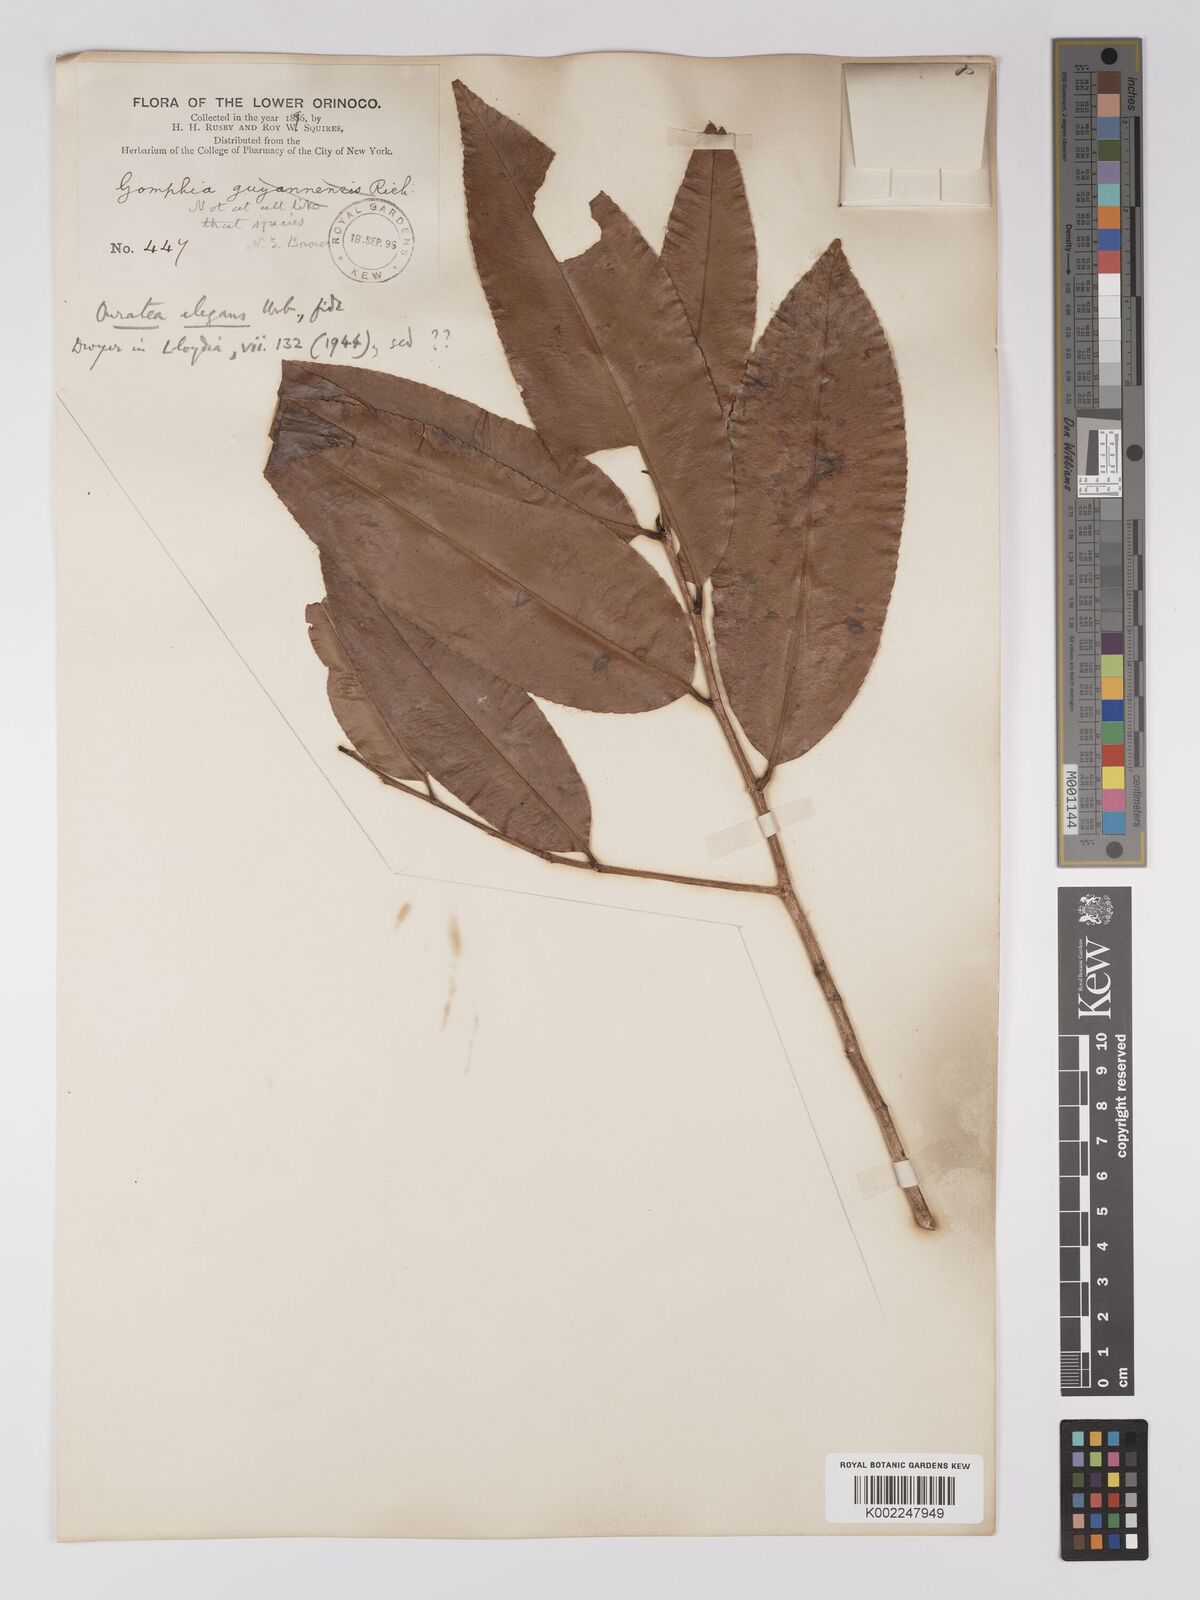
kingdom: Plantae
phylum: Tracheophyta
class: Magnoliopsida
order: Malpighiales
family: Ochnaceae
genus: Ouratea
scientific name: Ouratea
